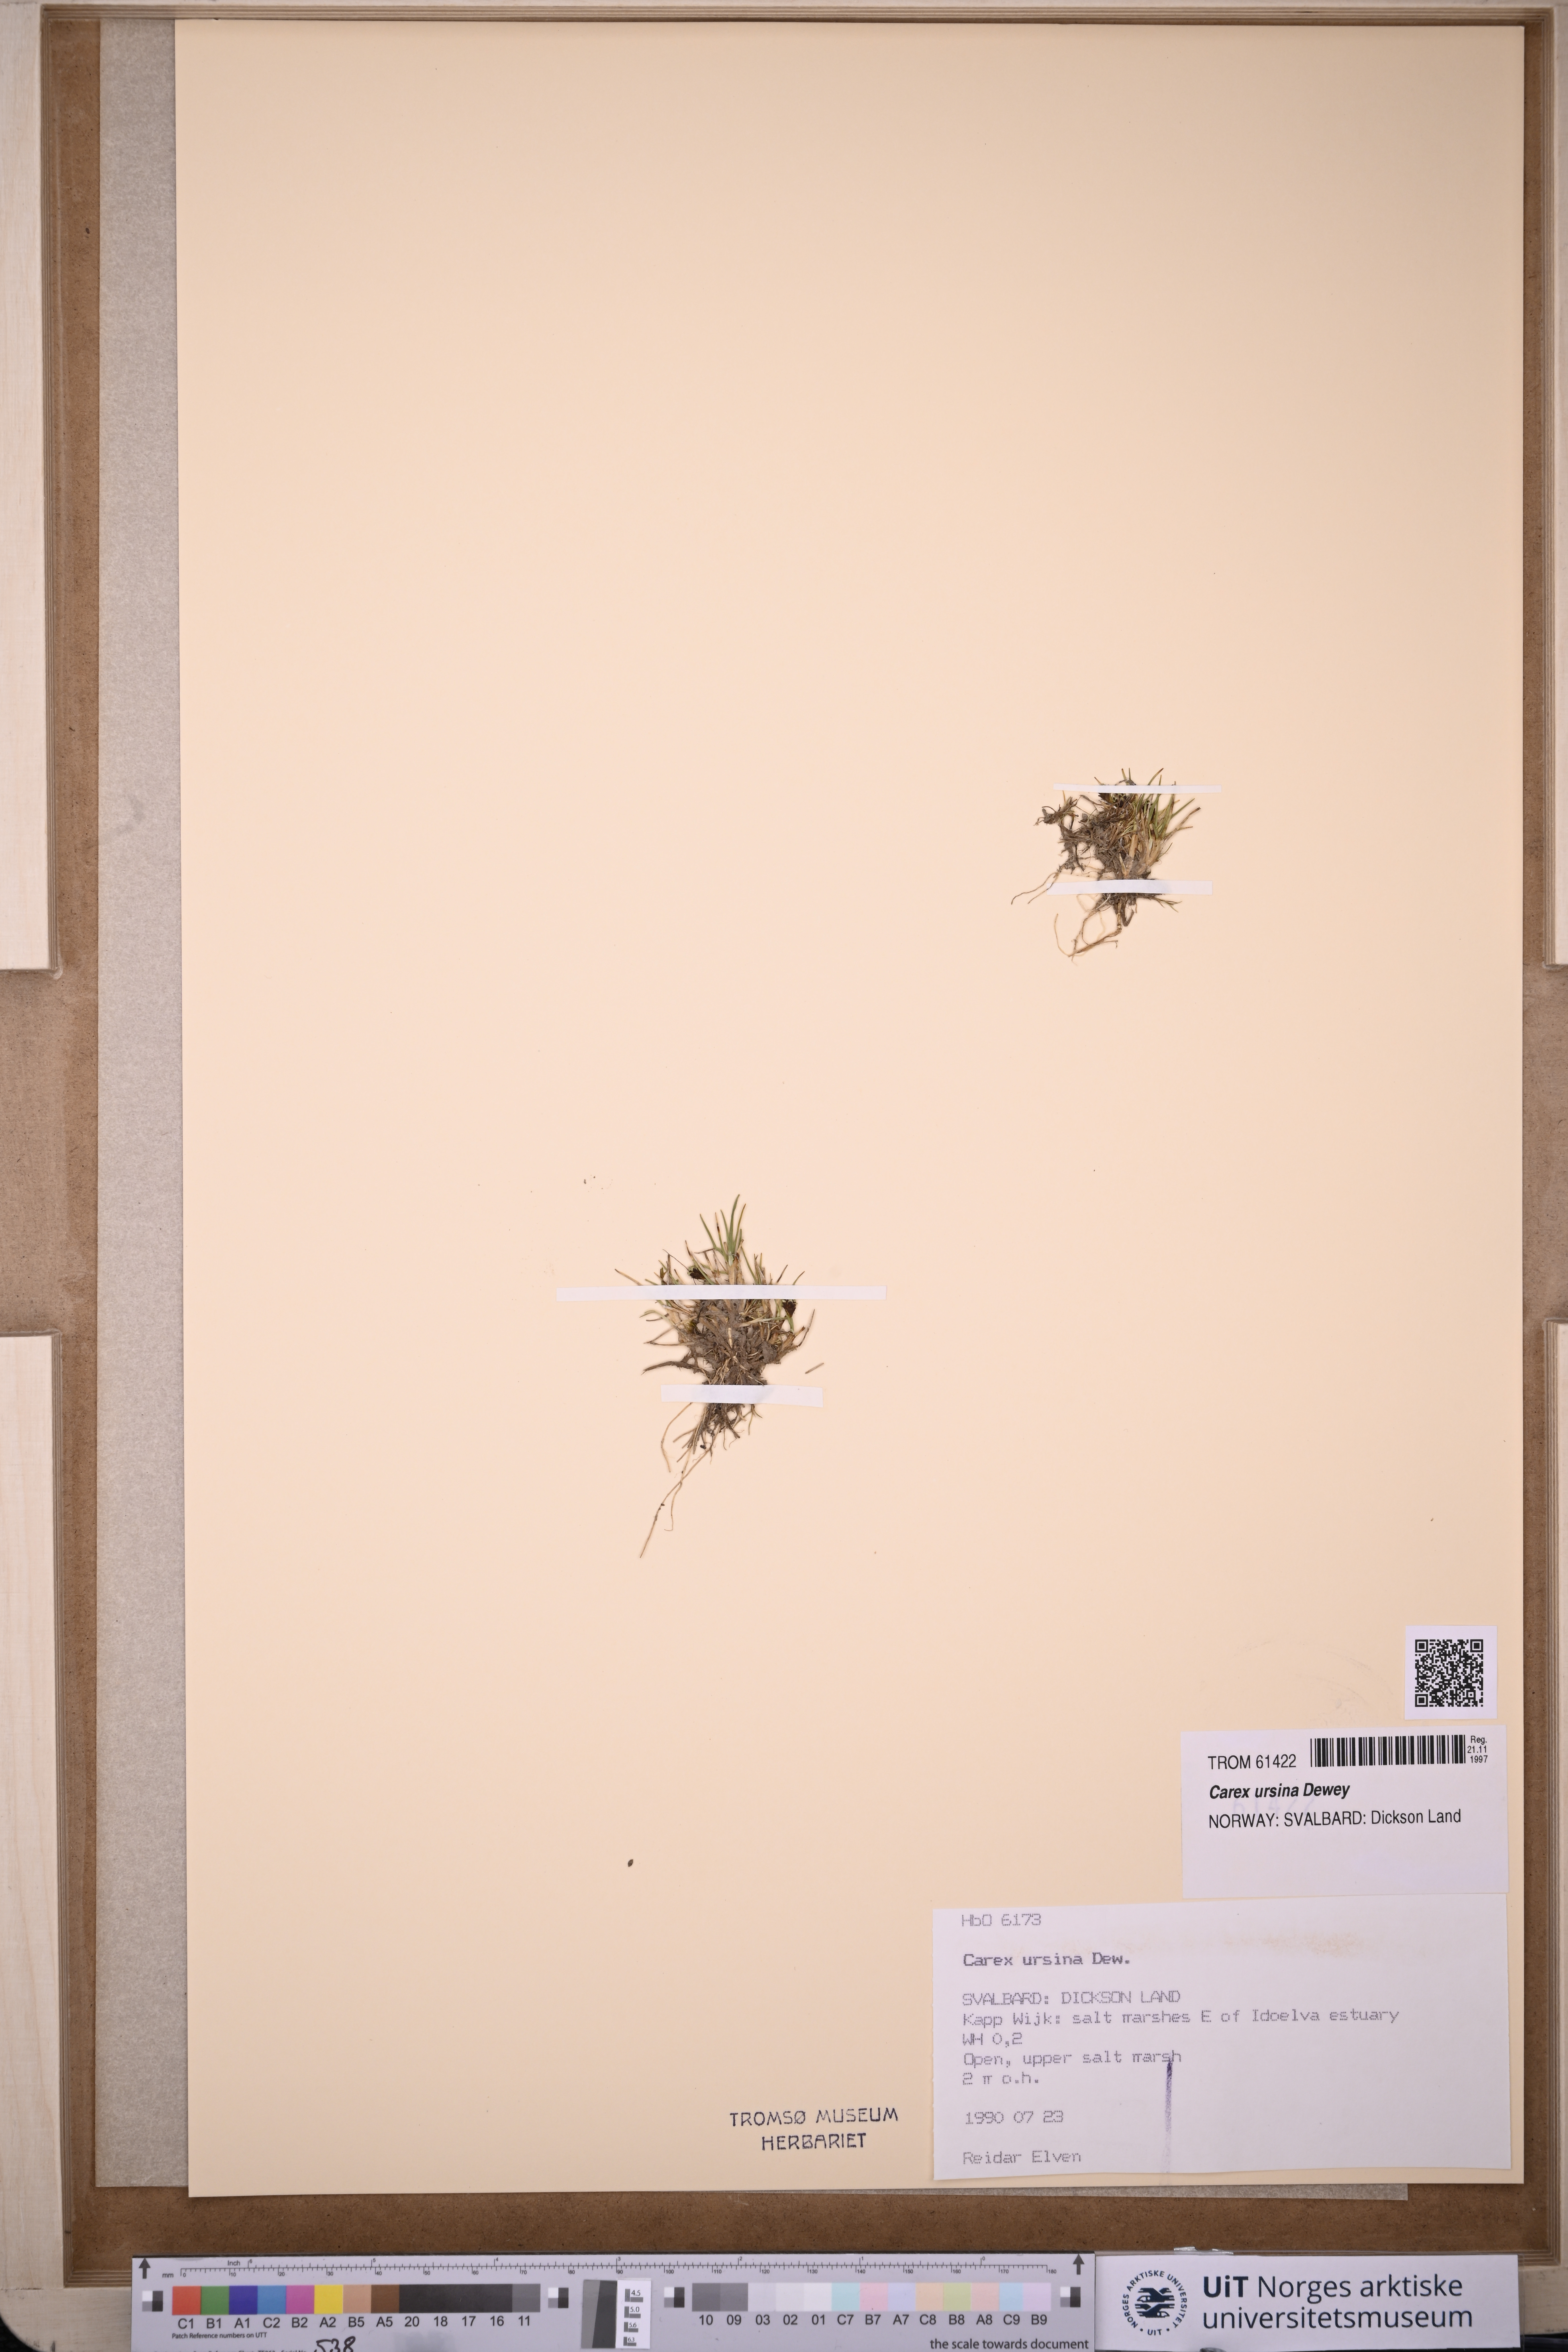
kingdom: Plantae
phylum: Tracheophyta
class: Liliopsida
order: Poales
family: Cyperaceae
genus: Carex
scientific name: Carex ursina
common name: Bear sedge
